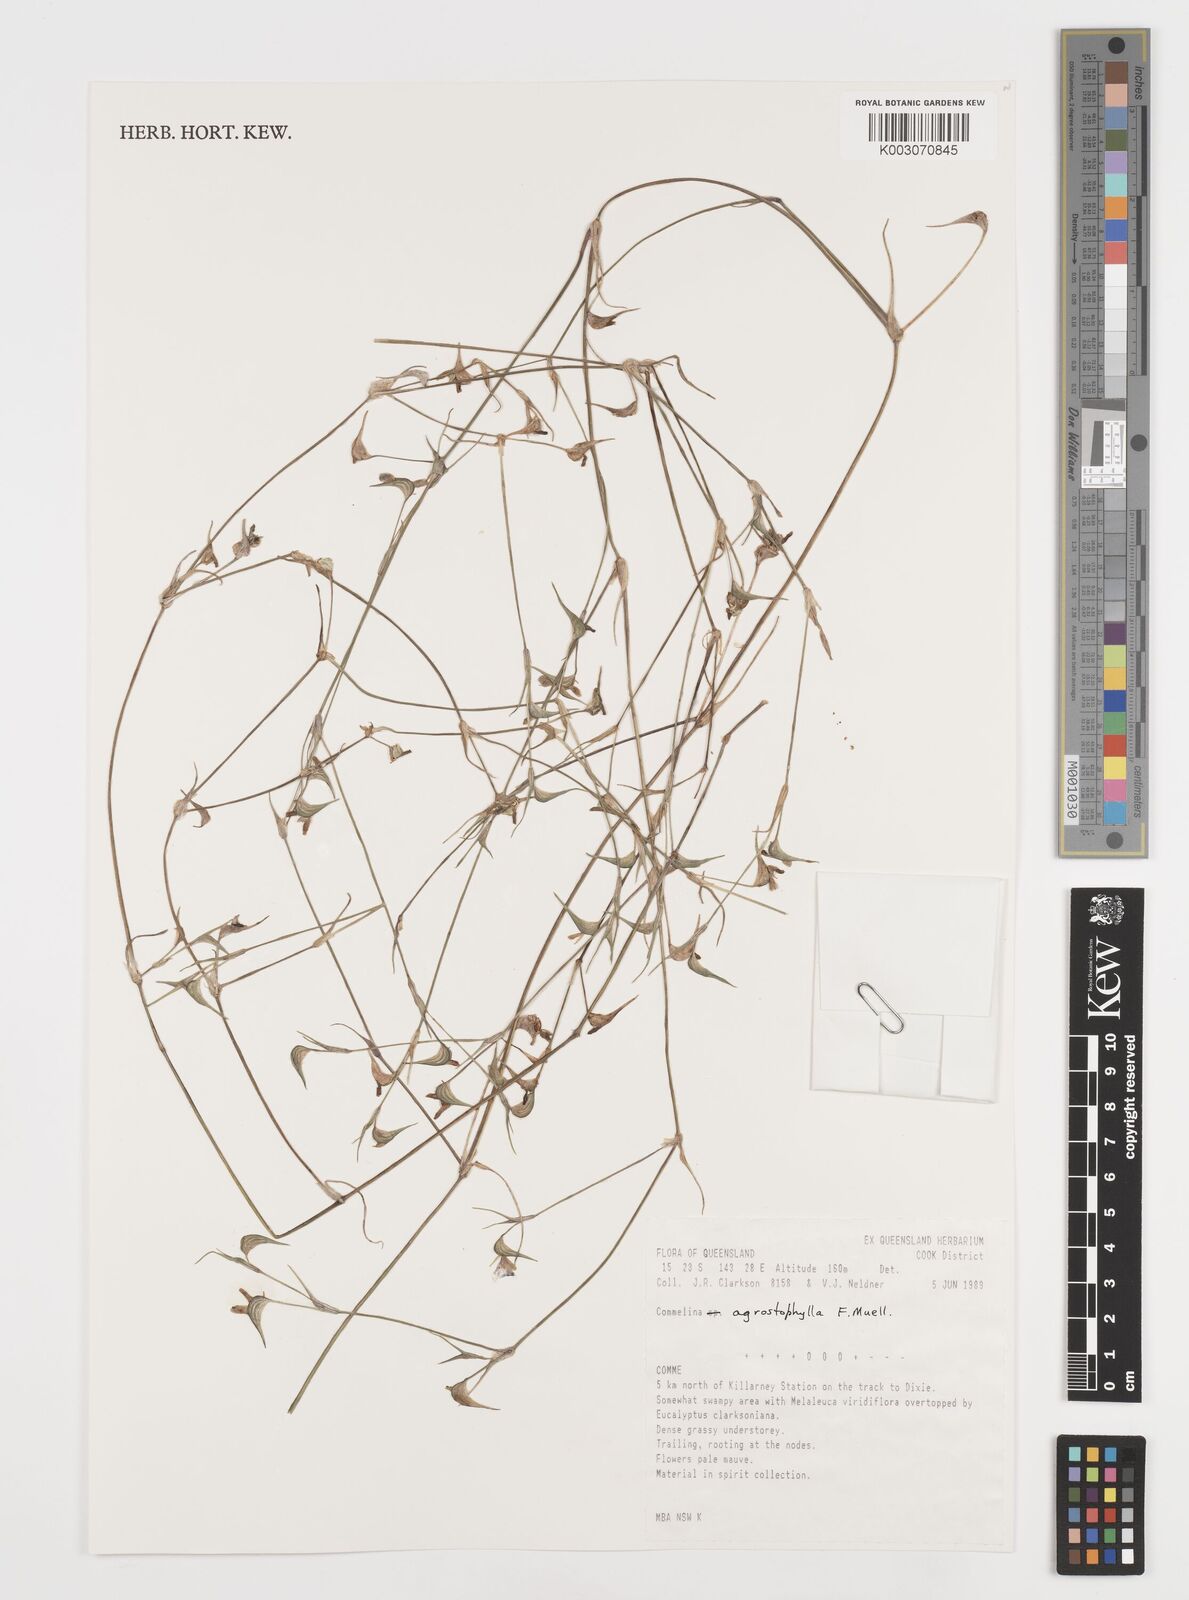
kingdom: Plantae
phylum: Tracheophyta
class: Liliopsida
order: Commelinales
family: Commelinaceae
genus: Commelina
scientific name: Commelina agrostophylla
